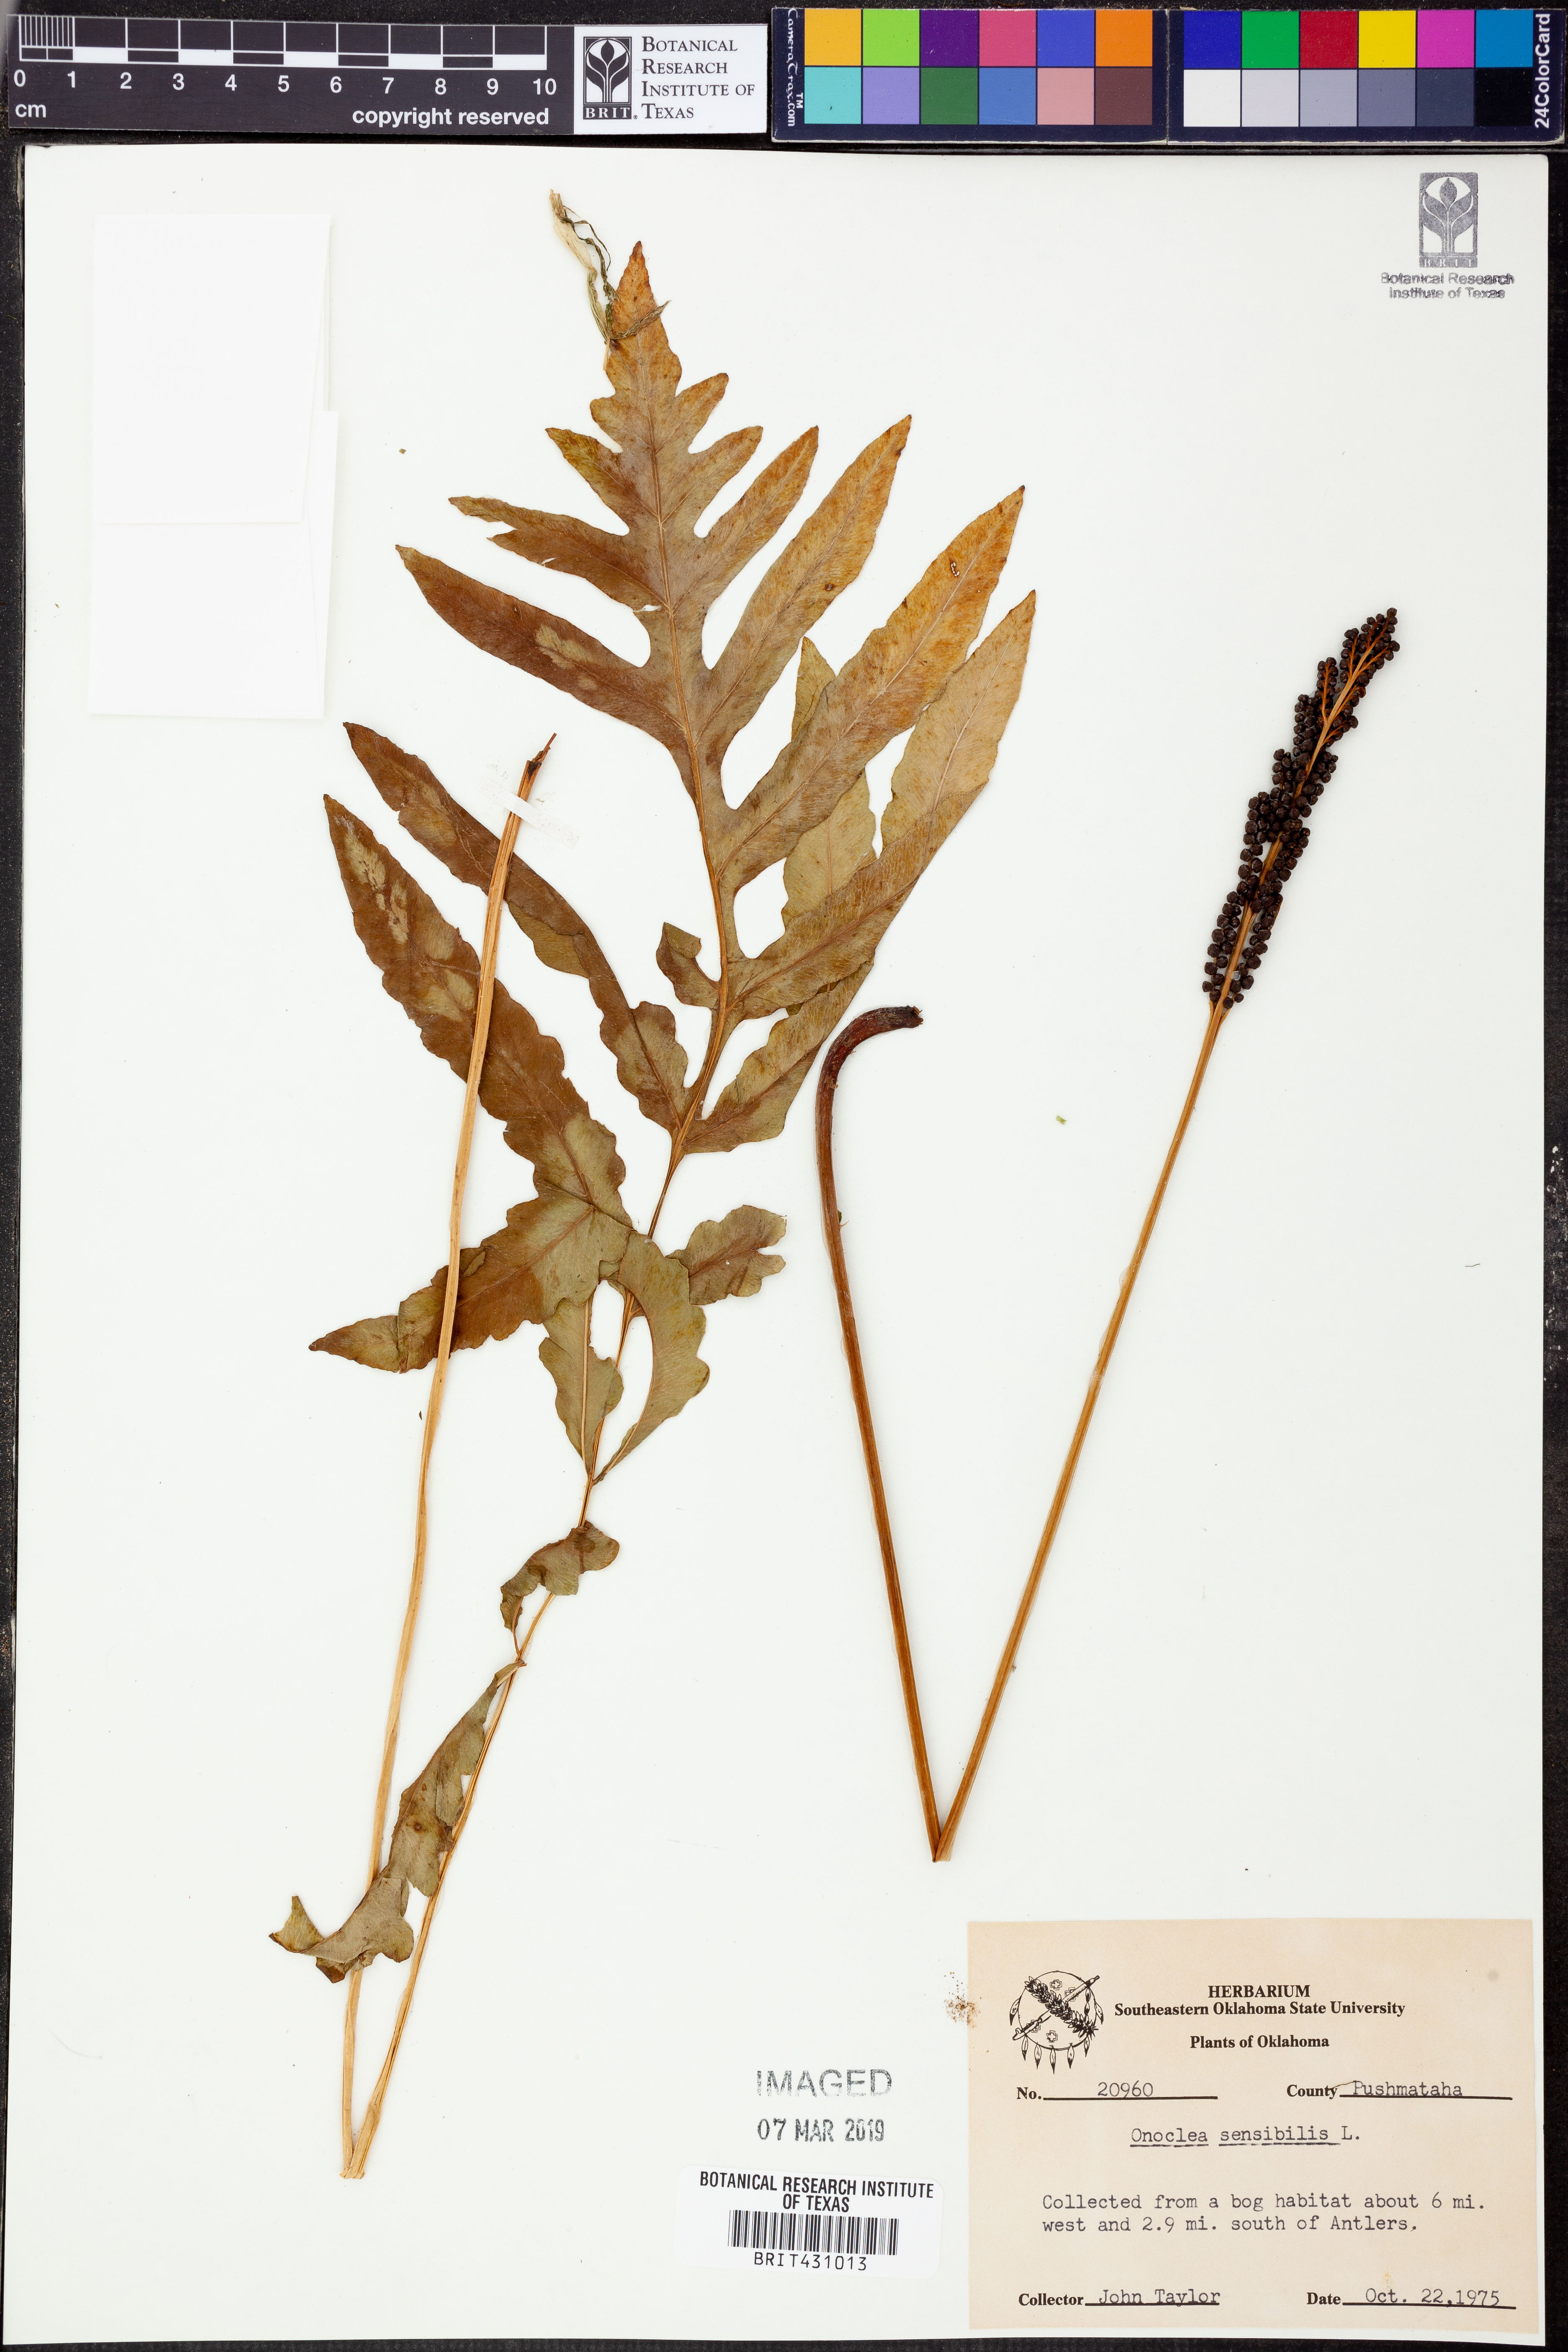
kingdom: Plantae
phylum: Tracheophyta
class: Polypodiopsida
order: Polypodiales
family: Onocleaceae
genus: Onoclea
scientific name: Onoclea sensibilis
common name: Sensitive fern
